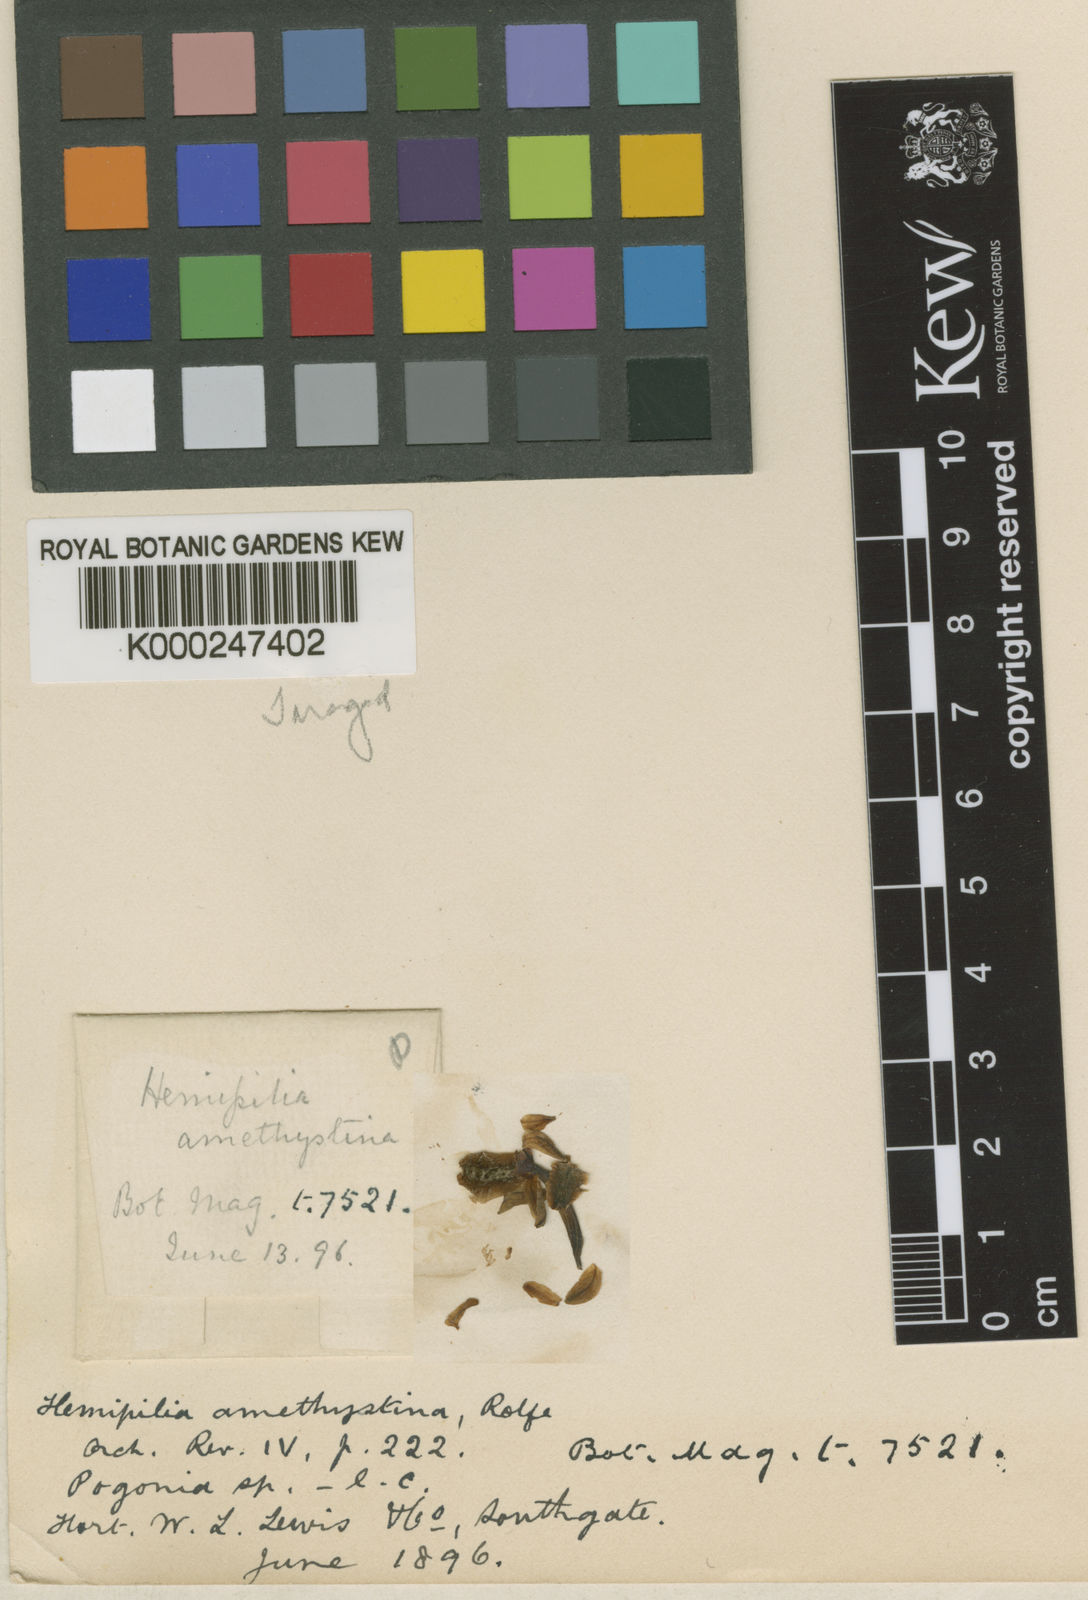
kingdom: Plantae
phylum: Tracheophyta
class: Liliopsida
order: Asparagales
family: Orchidaceae
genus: Hemipilia
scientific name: Hemipilia calophylla
